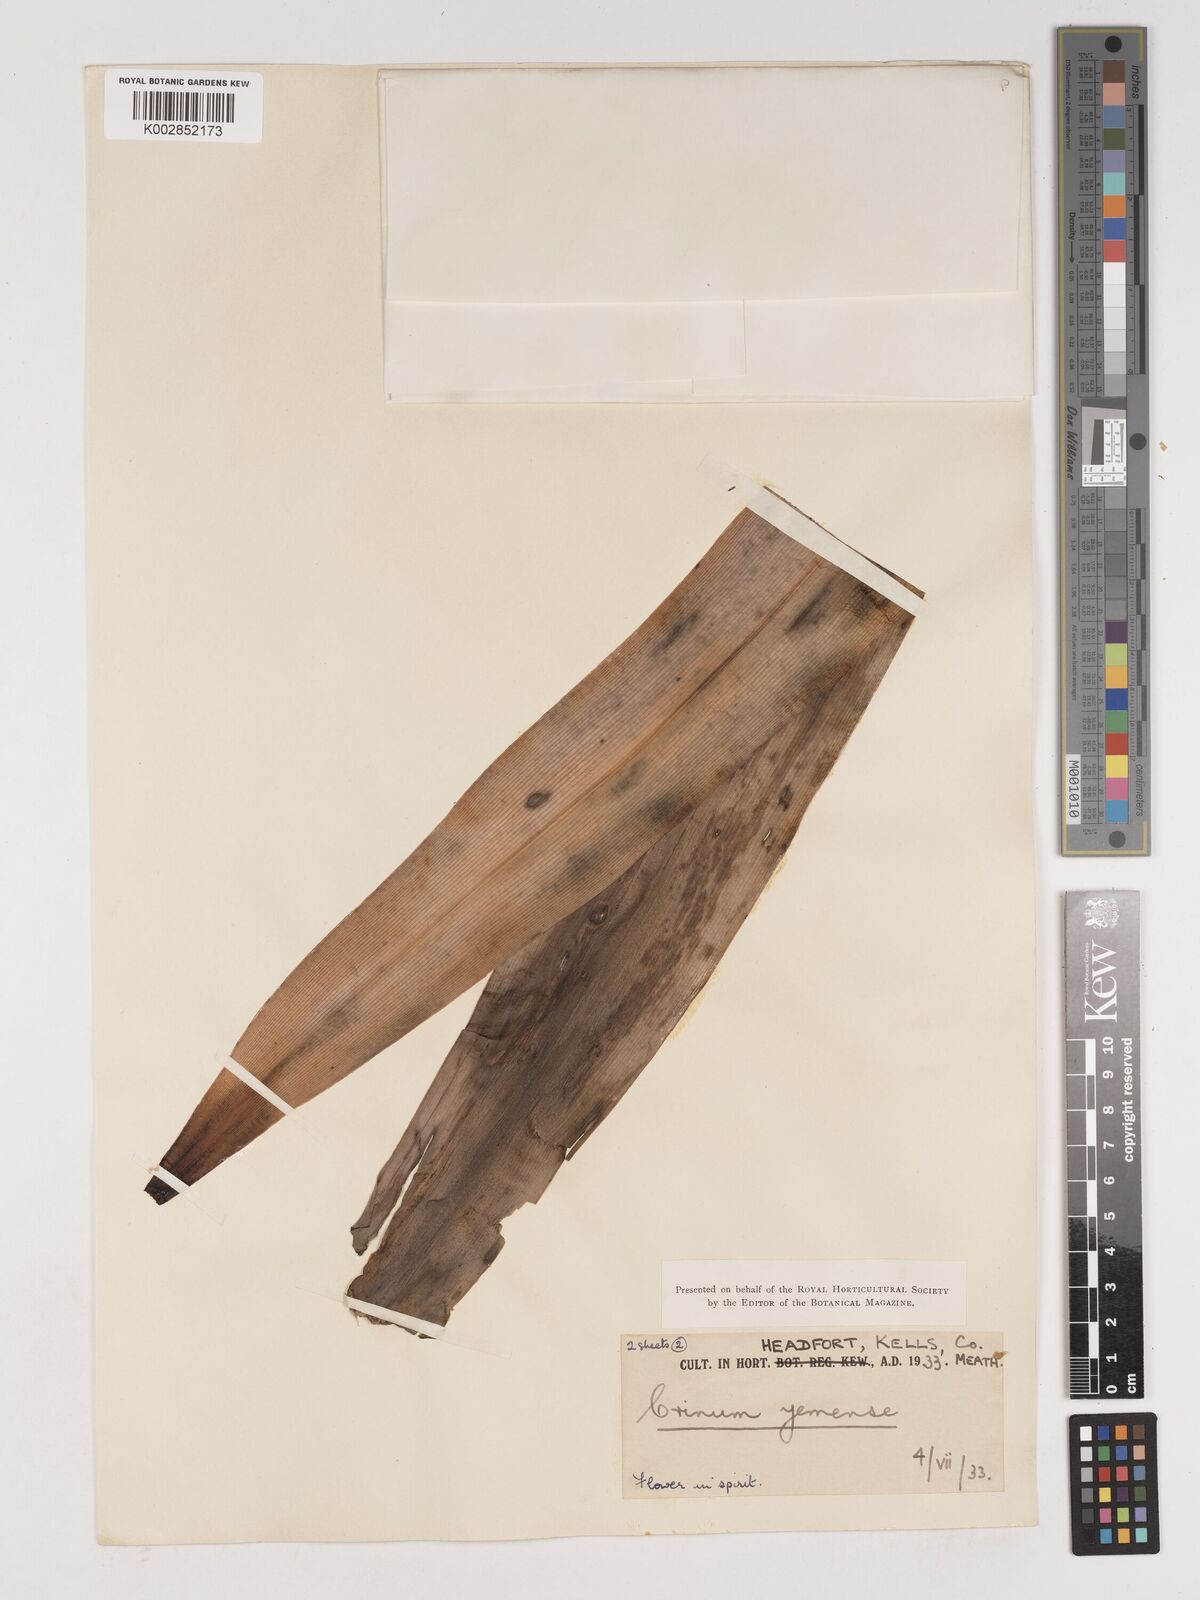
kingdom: Plantae
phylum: Tracheophyta
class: Liliopsida
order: Asparagales
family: Amaryllidaceae
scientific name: Amaryllidaceae
